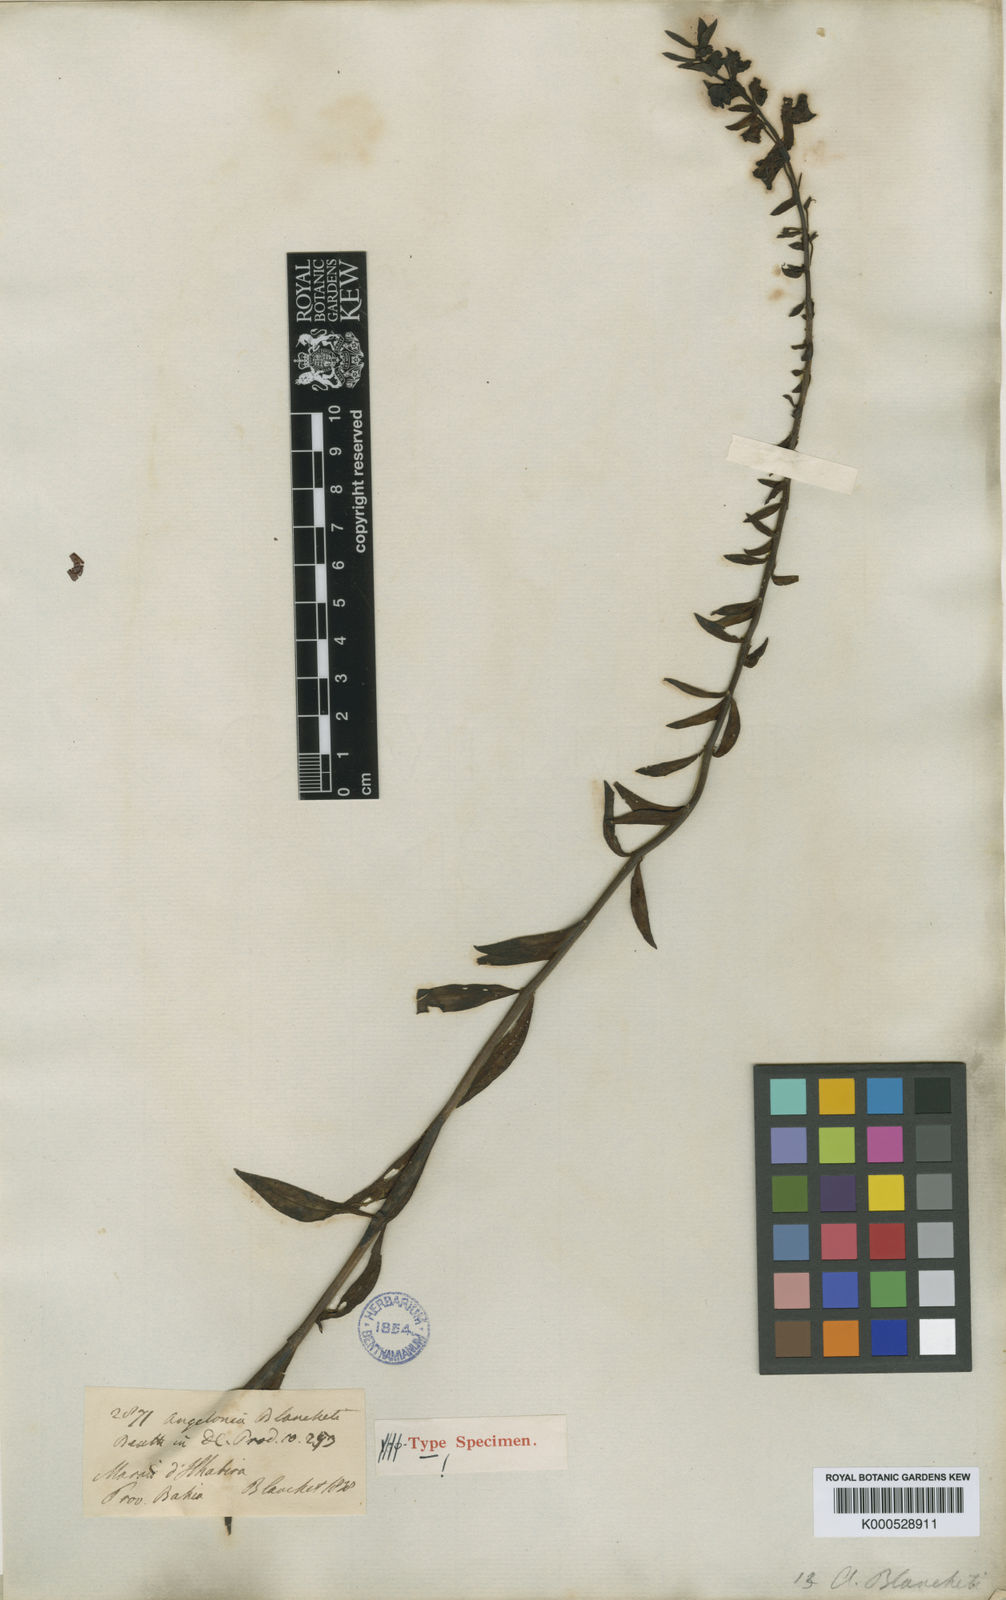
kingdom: Plantae
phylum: Tracheophyta
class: Magnoliopsida
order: Lamiales
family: Plantaginaceae
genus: Angelonia
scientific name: Angelonia blanchetii
